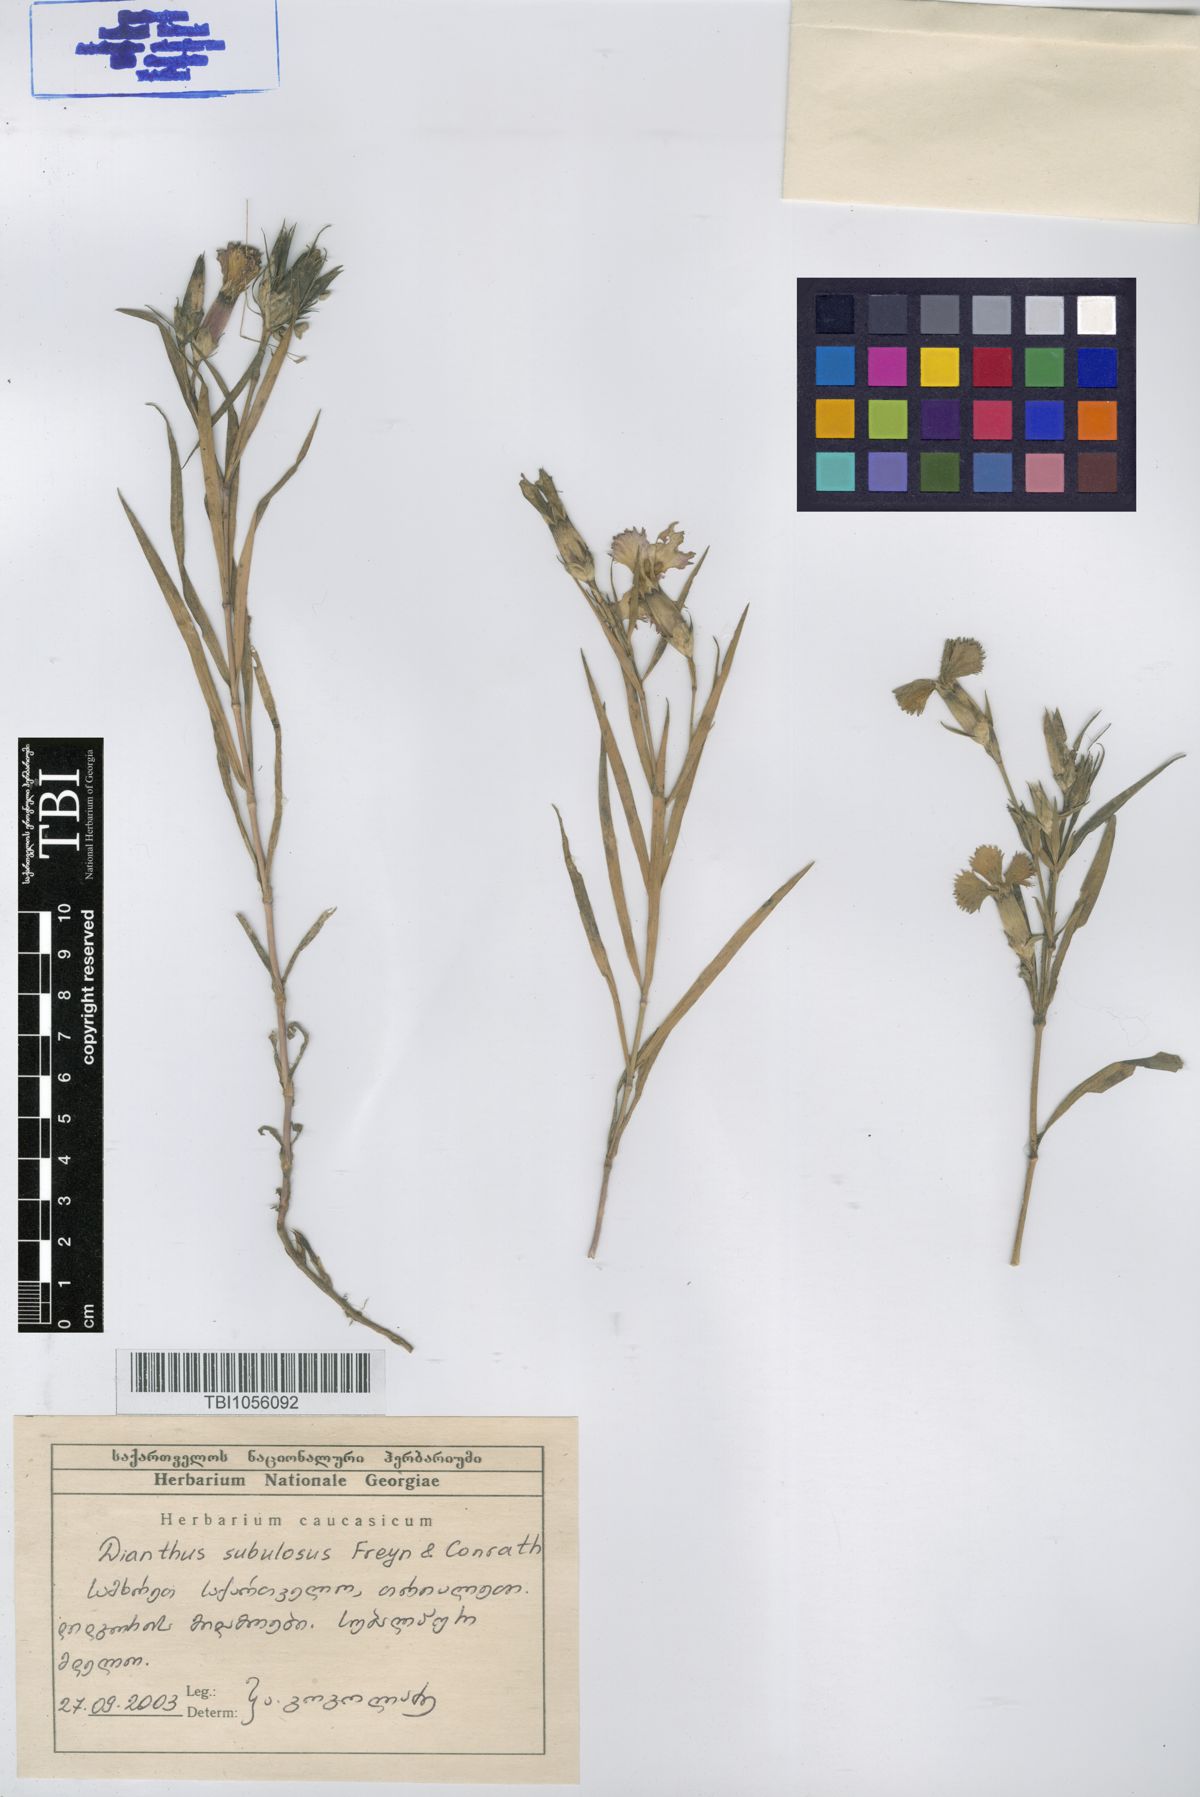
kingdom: Plantae
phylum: Tracheophyta
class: Magnoliopsida
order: Caryophyllales
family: Caryophyllaceae
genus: Dianthus
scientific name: Dianthus subulosus
